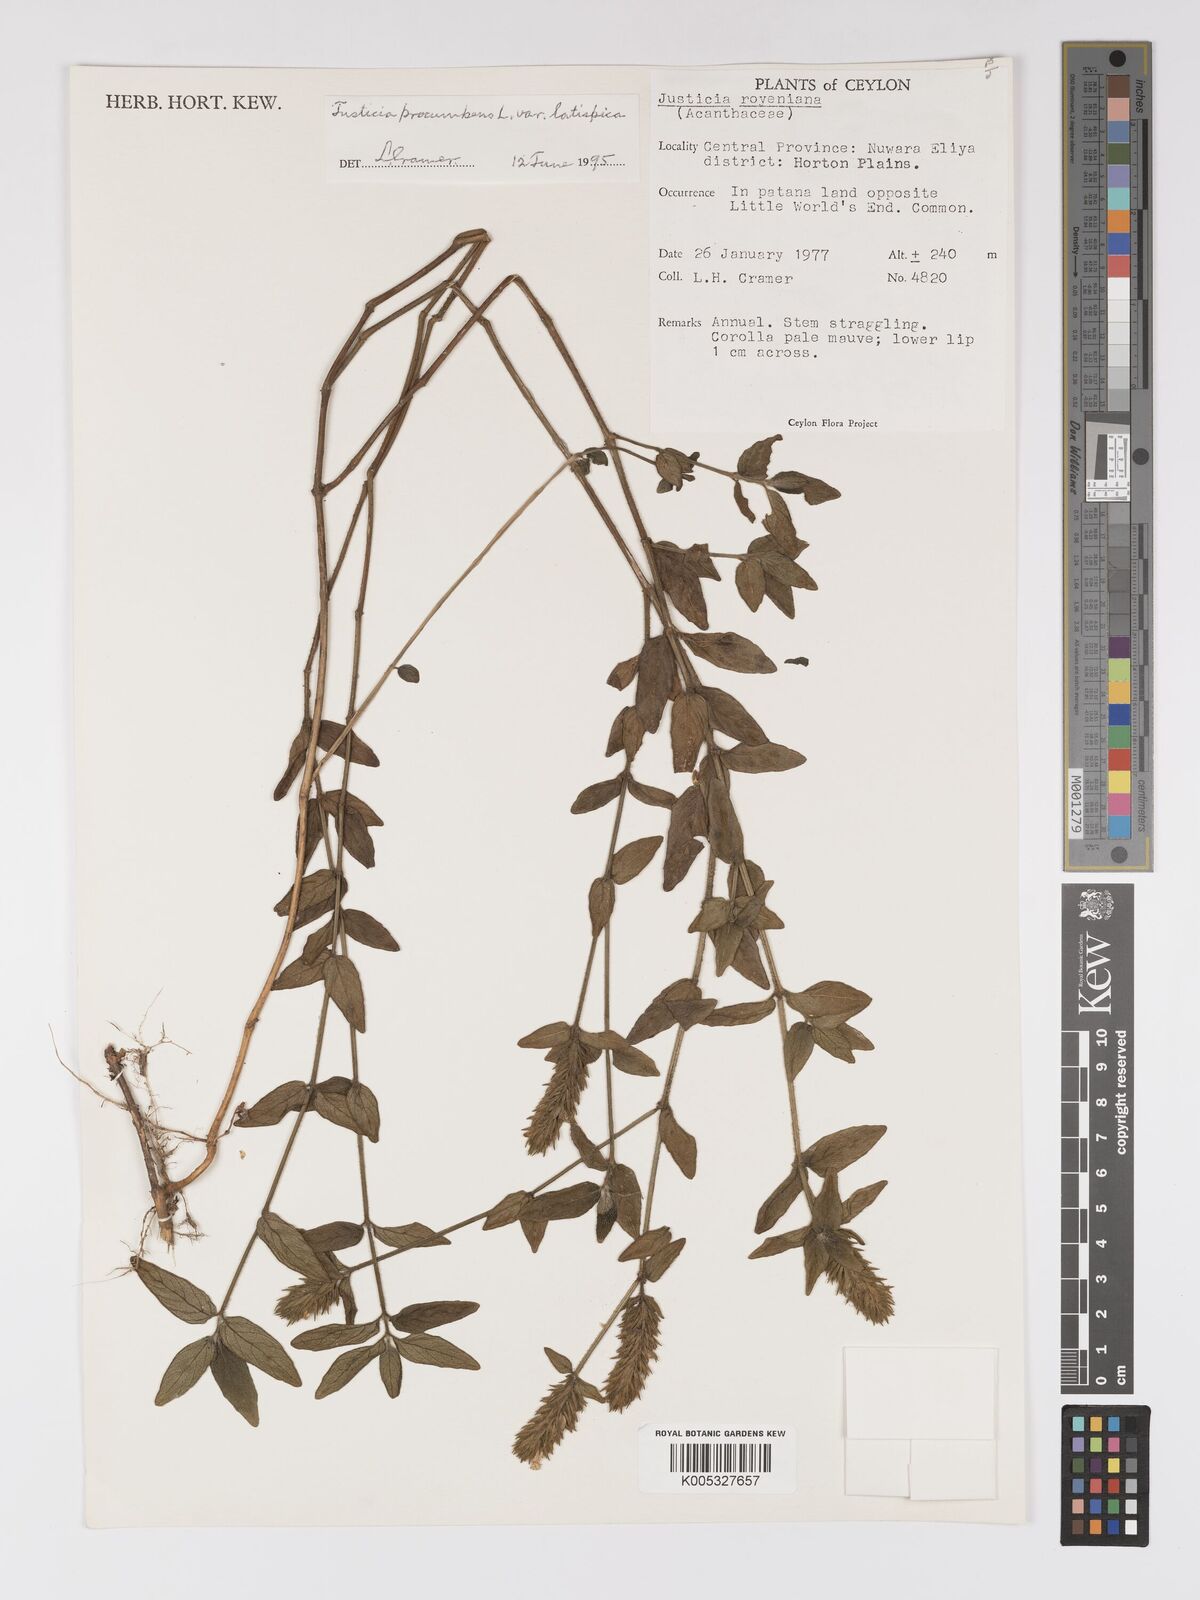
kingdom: Plantae
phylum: Tracheophyta
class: Magnoliopsida
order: Lamiales
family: Acanthaceae
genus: Rostellularia
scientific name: Rostellularia latispica
